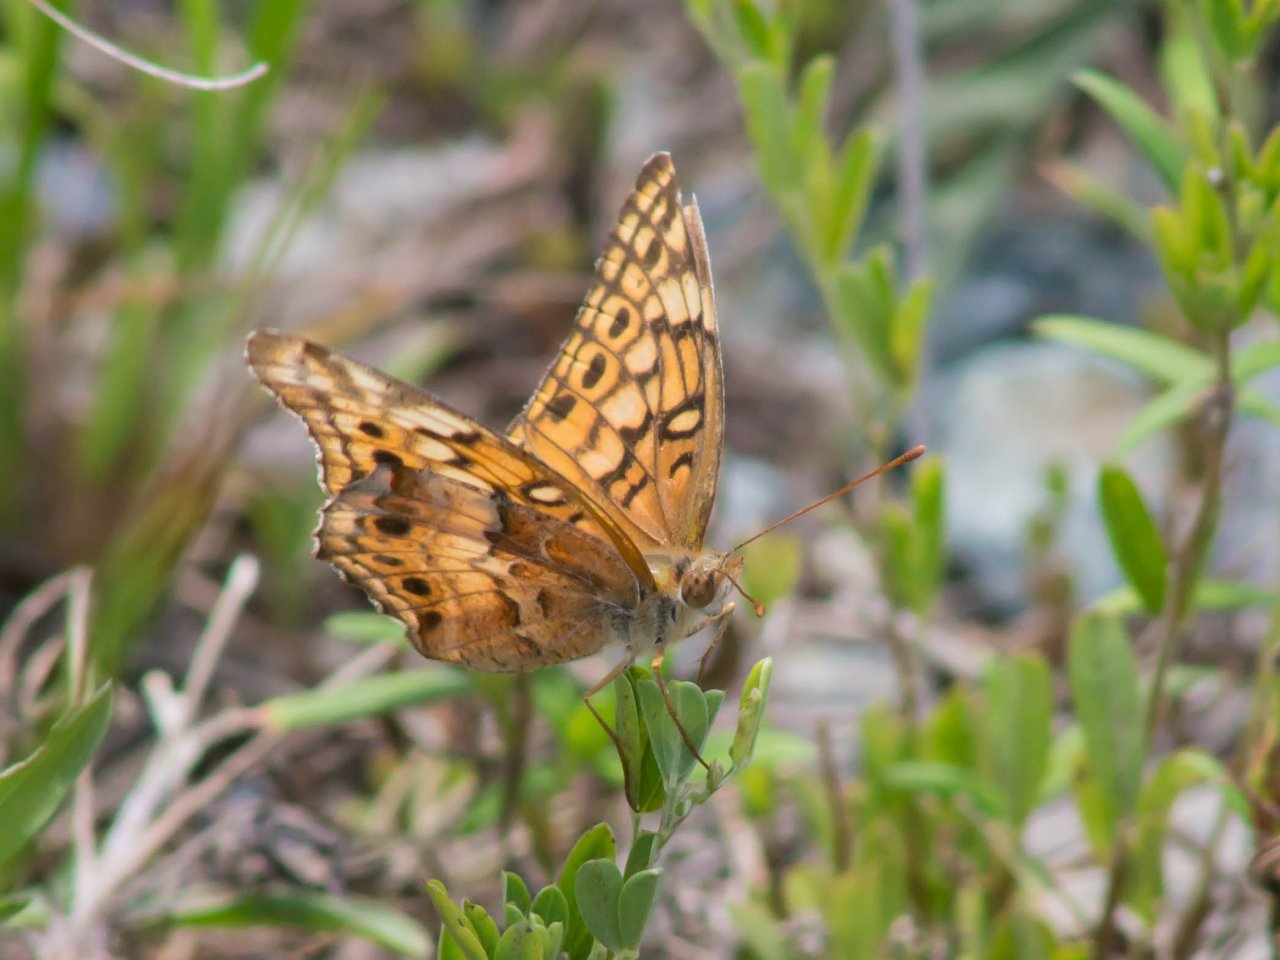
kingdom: Animalia
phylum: Arthropoda
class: Insecta
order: Lepidoptera
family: Nymphalidae
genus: Euptoieta
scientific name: Euptoieta claudia
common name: Variegated Fritillary
